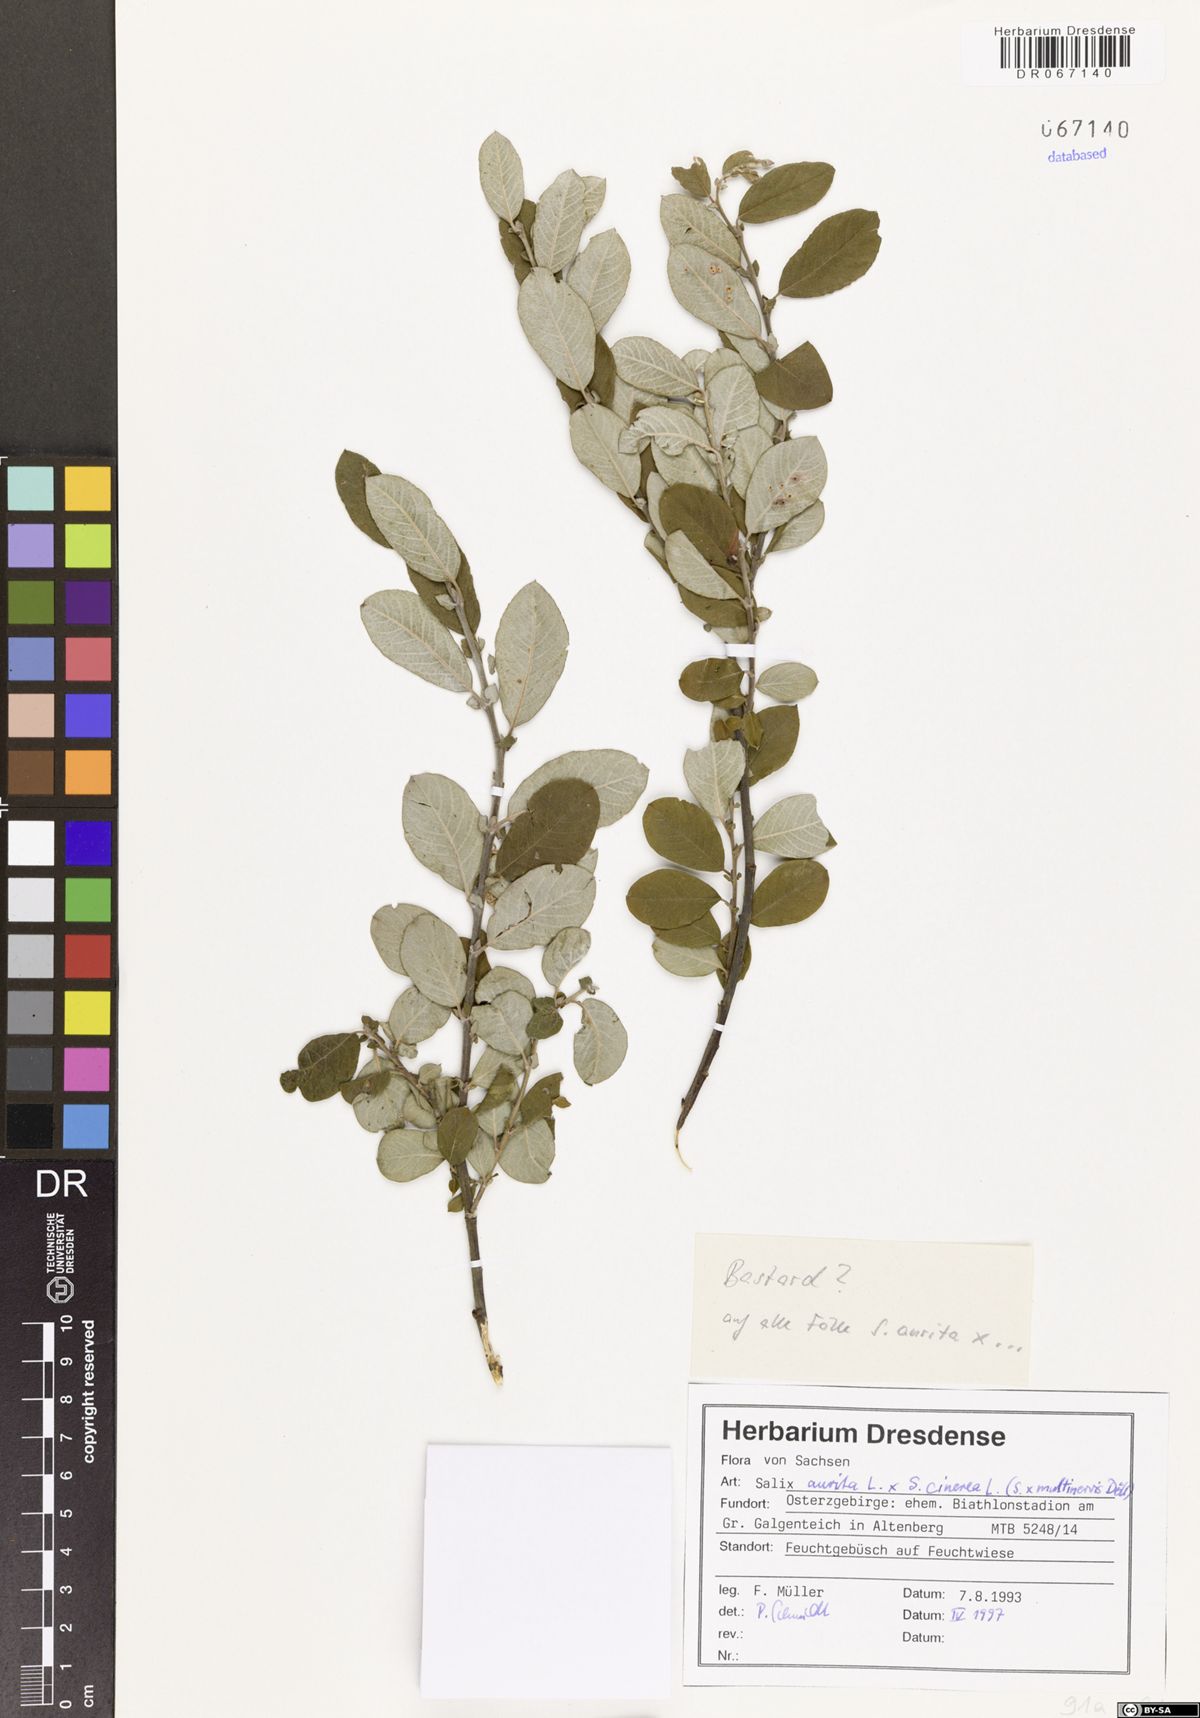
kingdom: Plantae
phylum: Tracheophyta
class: Magnoliopsida
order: Malpighiales
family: Salicaceae
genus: Salix
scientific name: Salix multinervis
